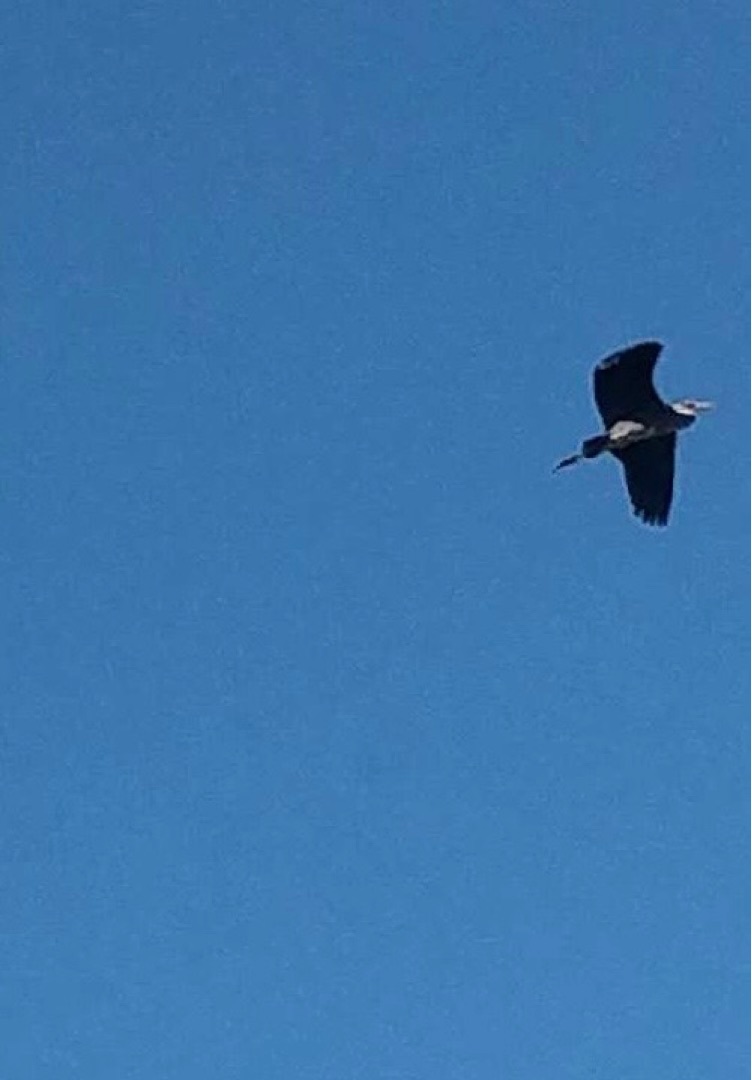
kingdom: Animalia
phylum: Chordata
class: Aves
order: Pelecaniformes
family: Ardeidae
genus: Ardea
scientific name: Ardea cinerea
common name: Fiskehejre
